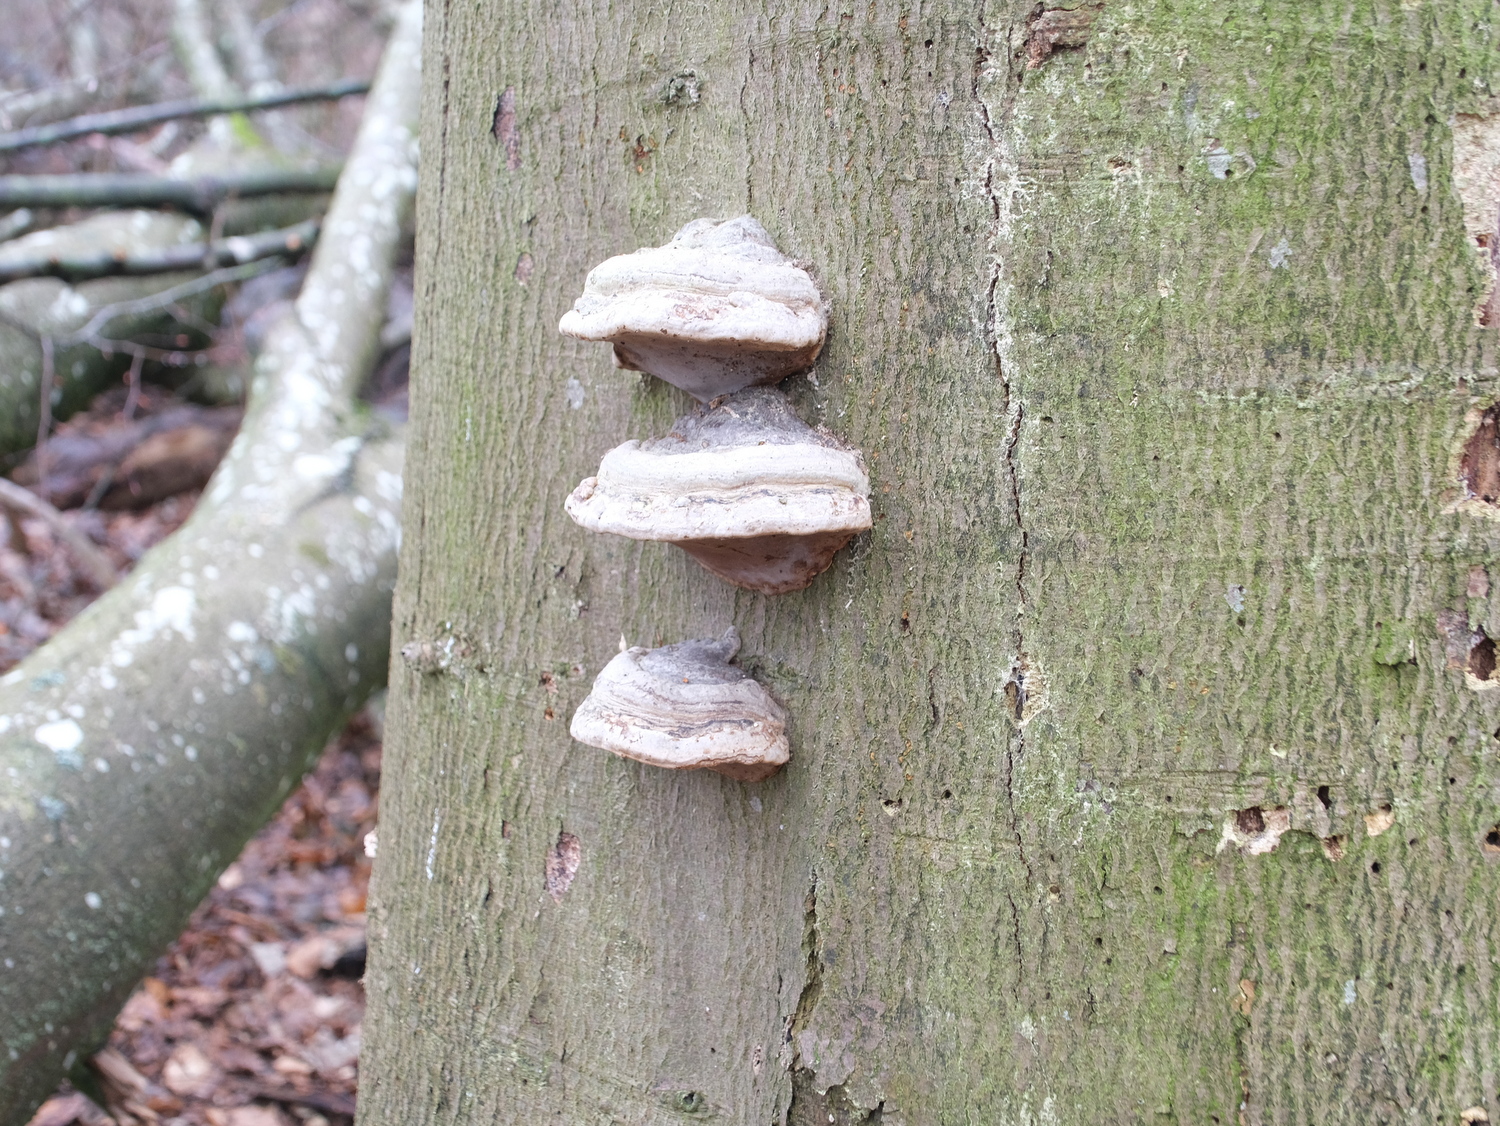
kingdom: Fungi
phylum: Basidiomycota
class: Agaricomycetes
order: Polyporales
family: Polyporaceae
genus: Fomes
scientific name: Fomes fomentarius
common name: tøndersvamp
